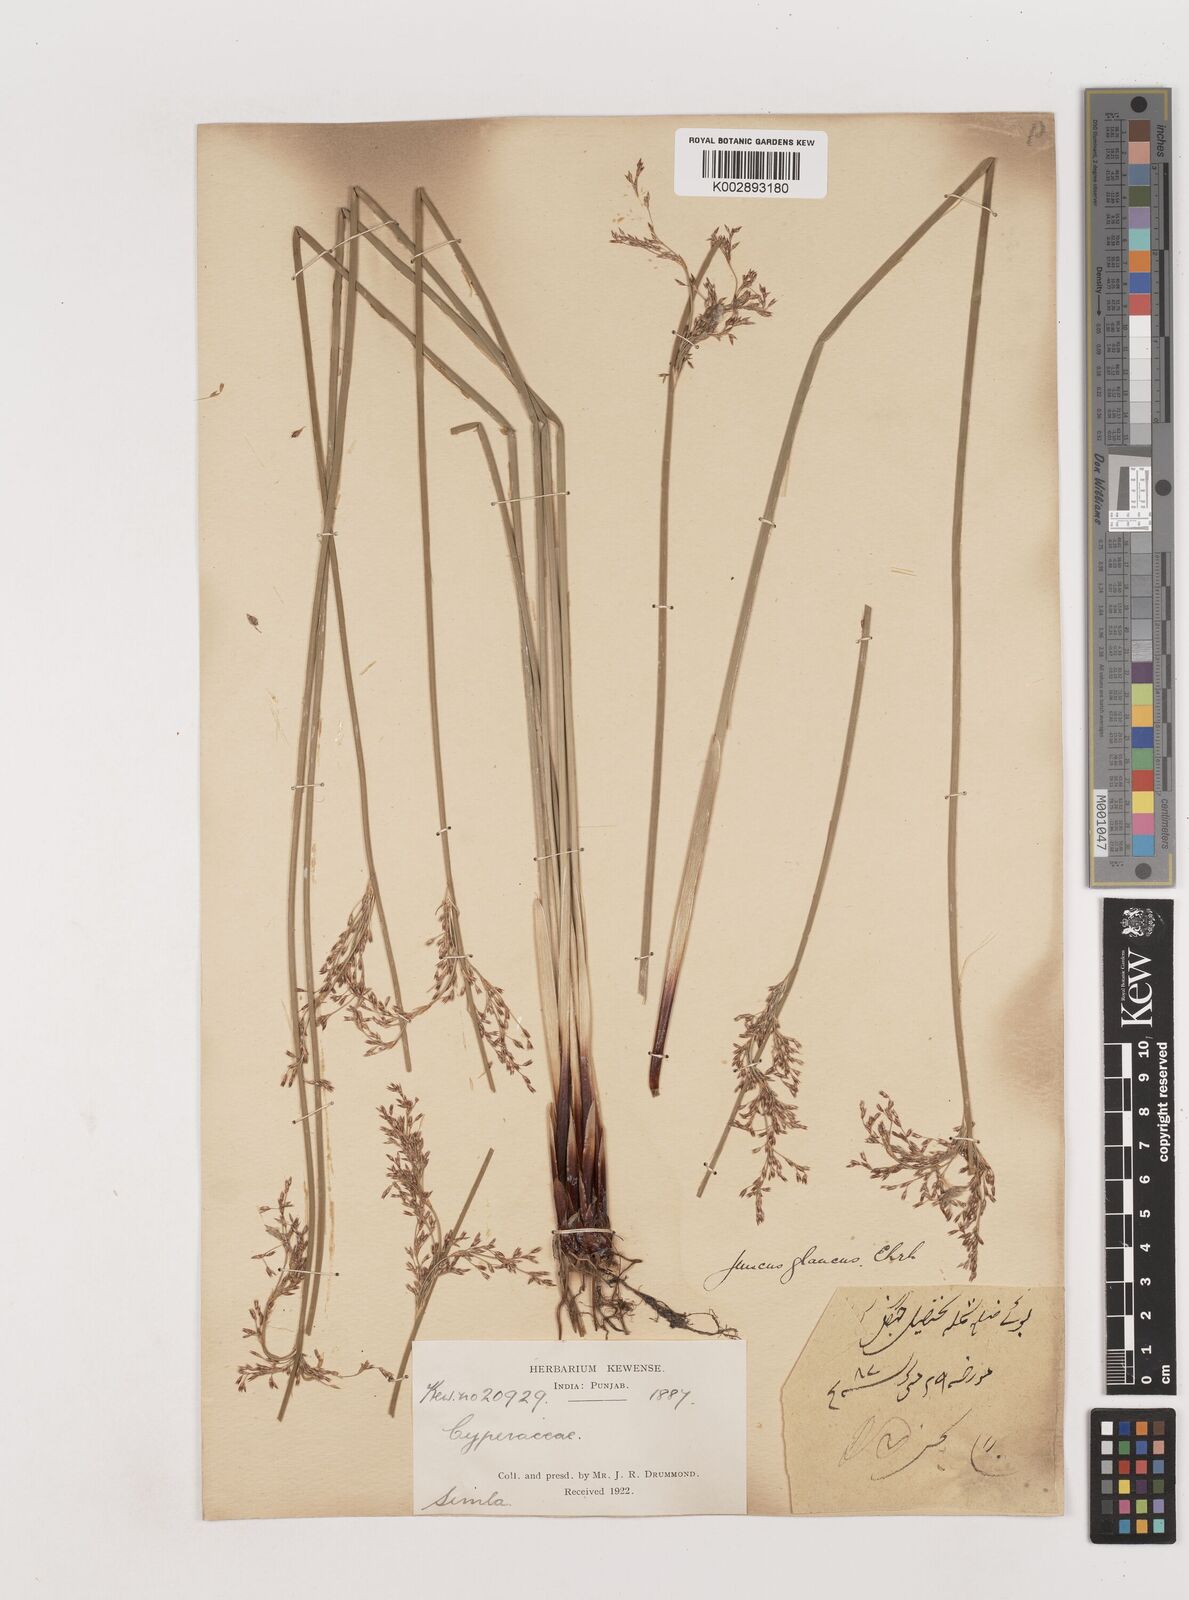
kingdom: Plantae
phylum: Tracheophyta
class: Liliopsida
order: Poales
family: Juncaceae
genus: Juncus
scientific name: Juncus inflexus
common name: Hard rush
